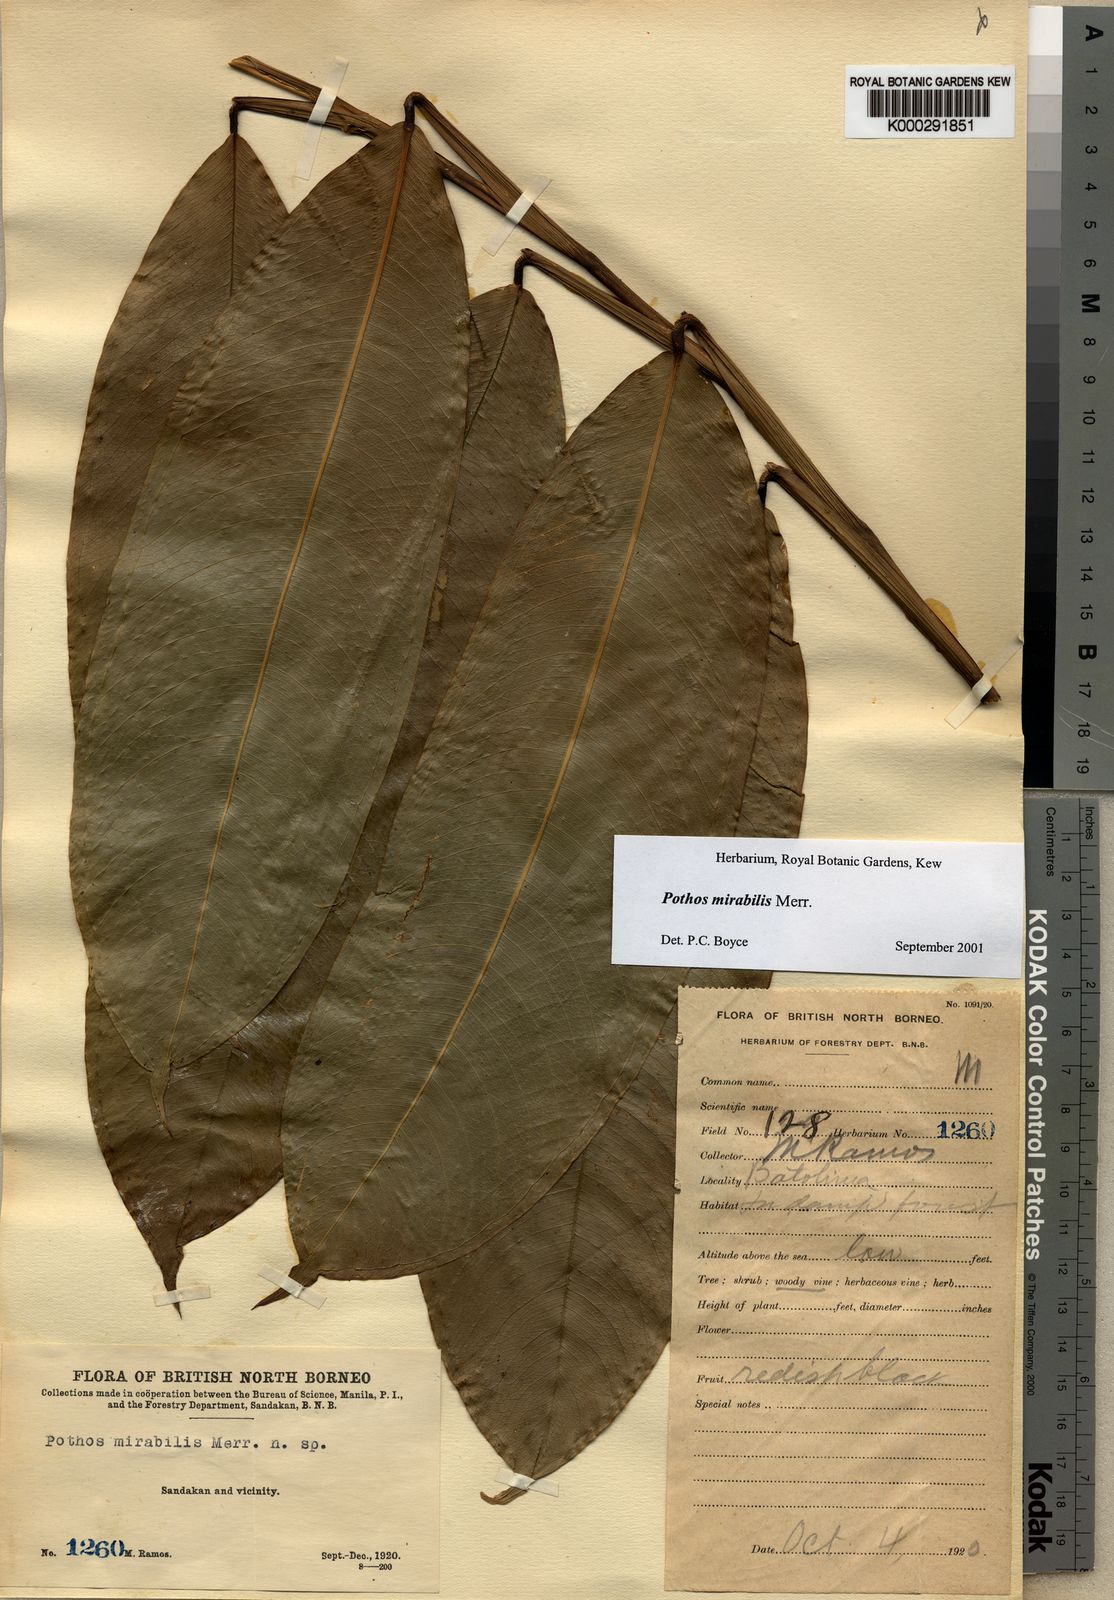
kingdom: Plantae
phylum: Tracheophyta
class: Liliopsida
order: Alismatales
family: Araceae
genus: Pothos
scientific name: Pothos mirabilis
